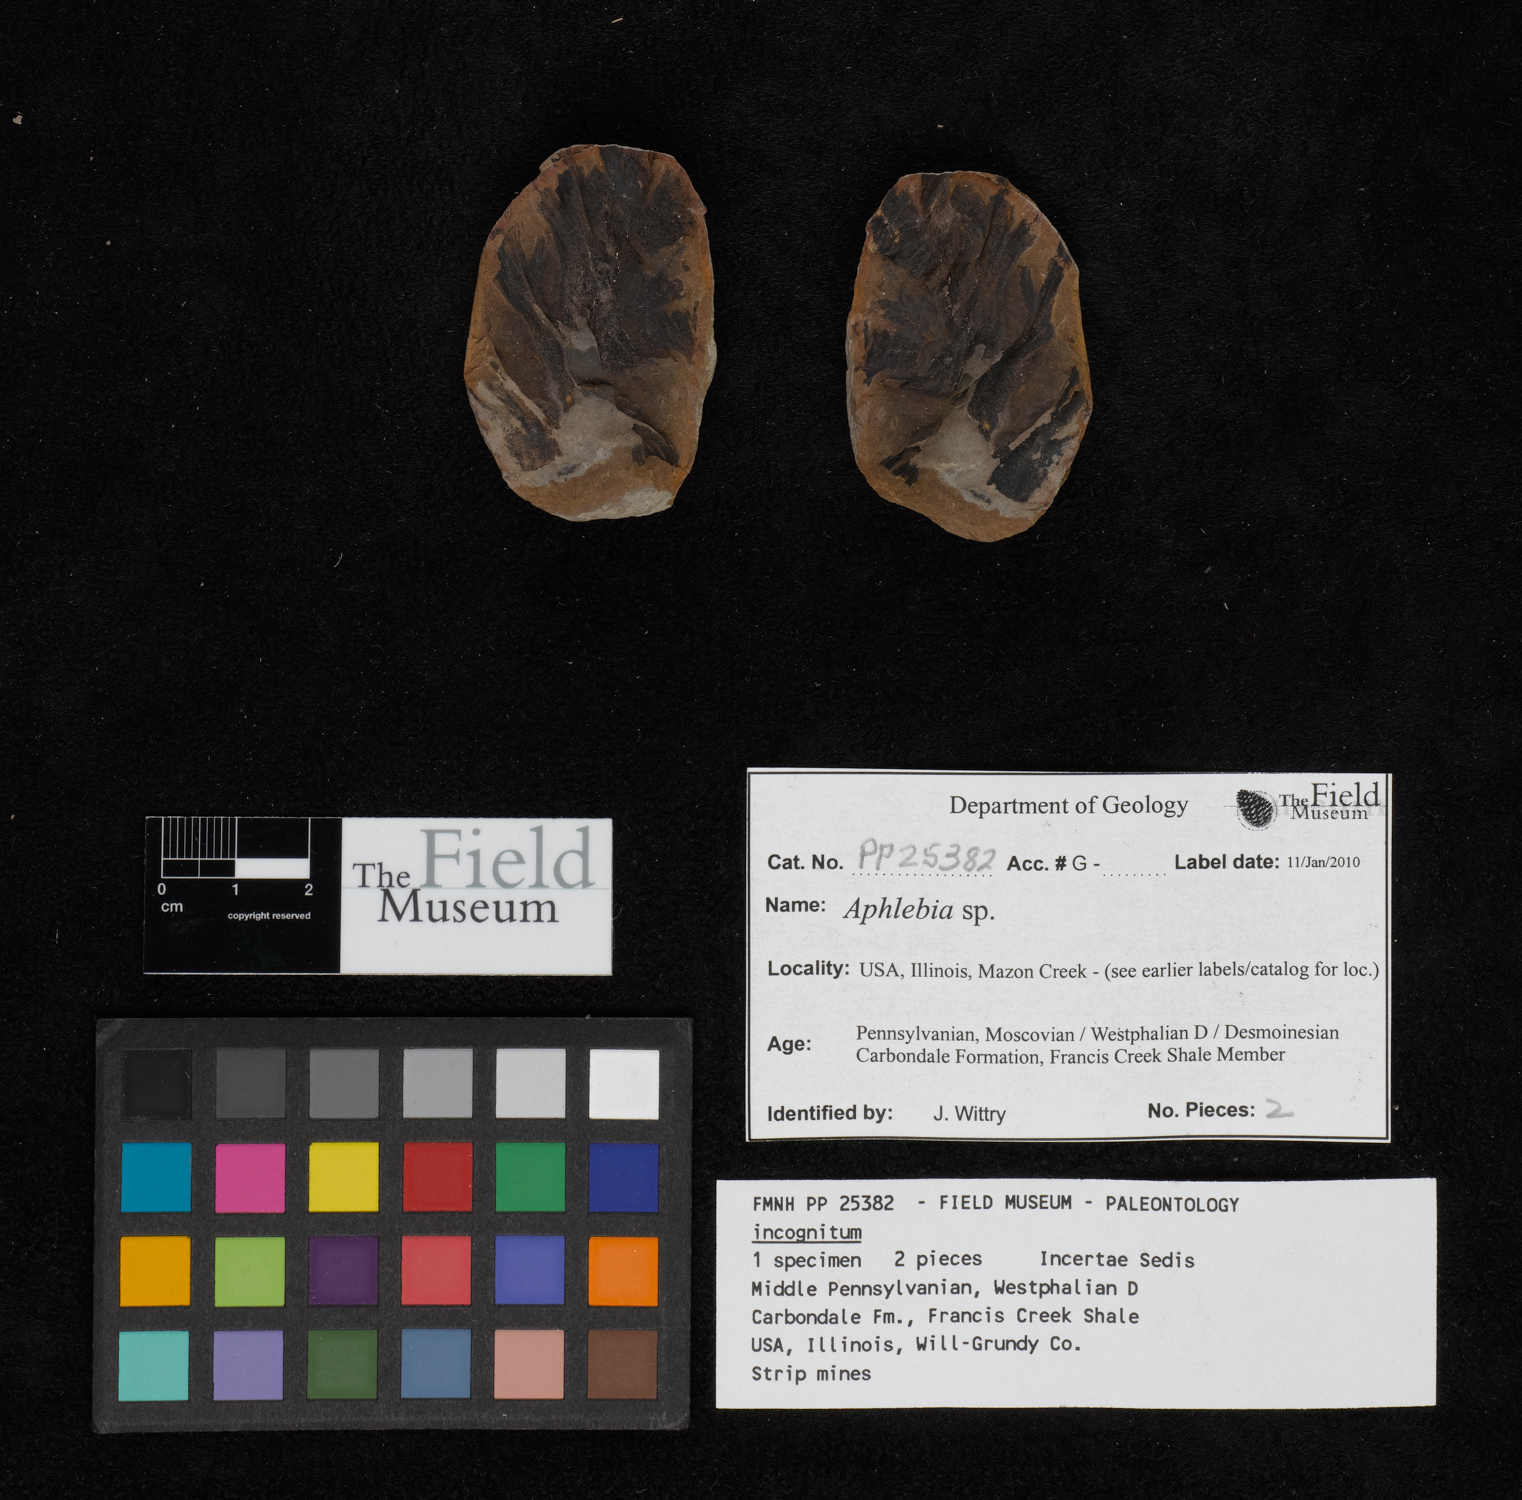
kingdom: Plantae
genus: Rhacophyllum
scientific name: Rhacophyllum
